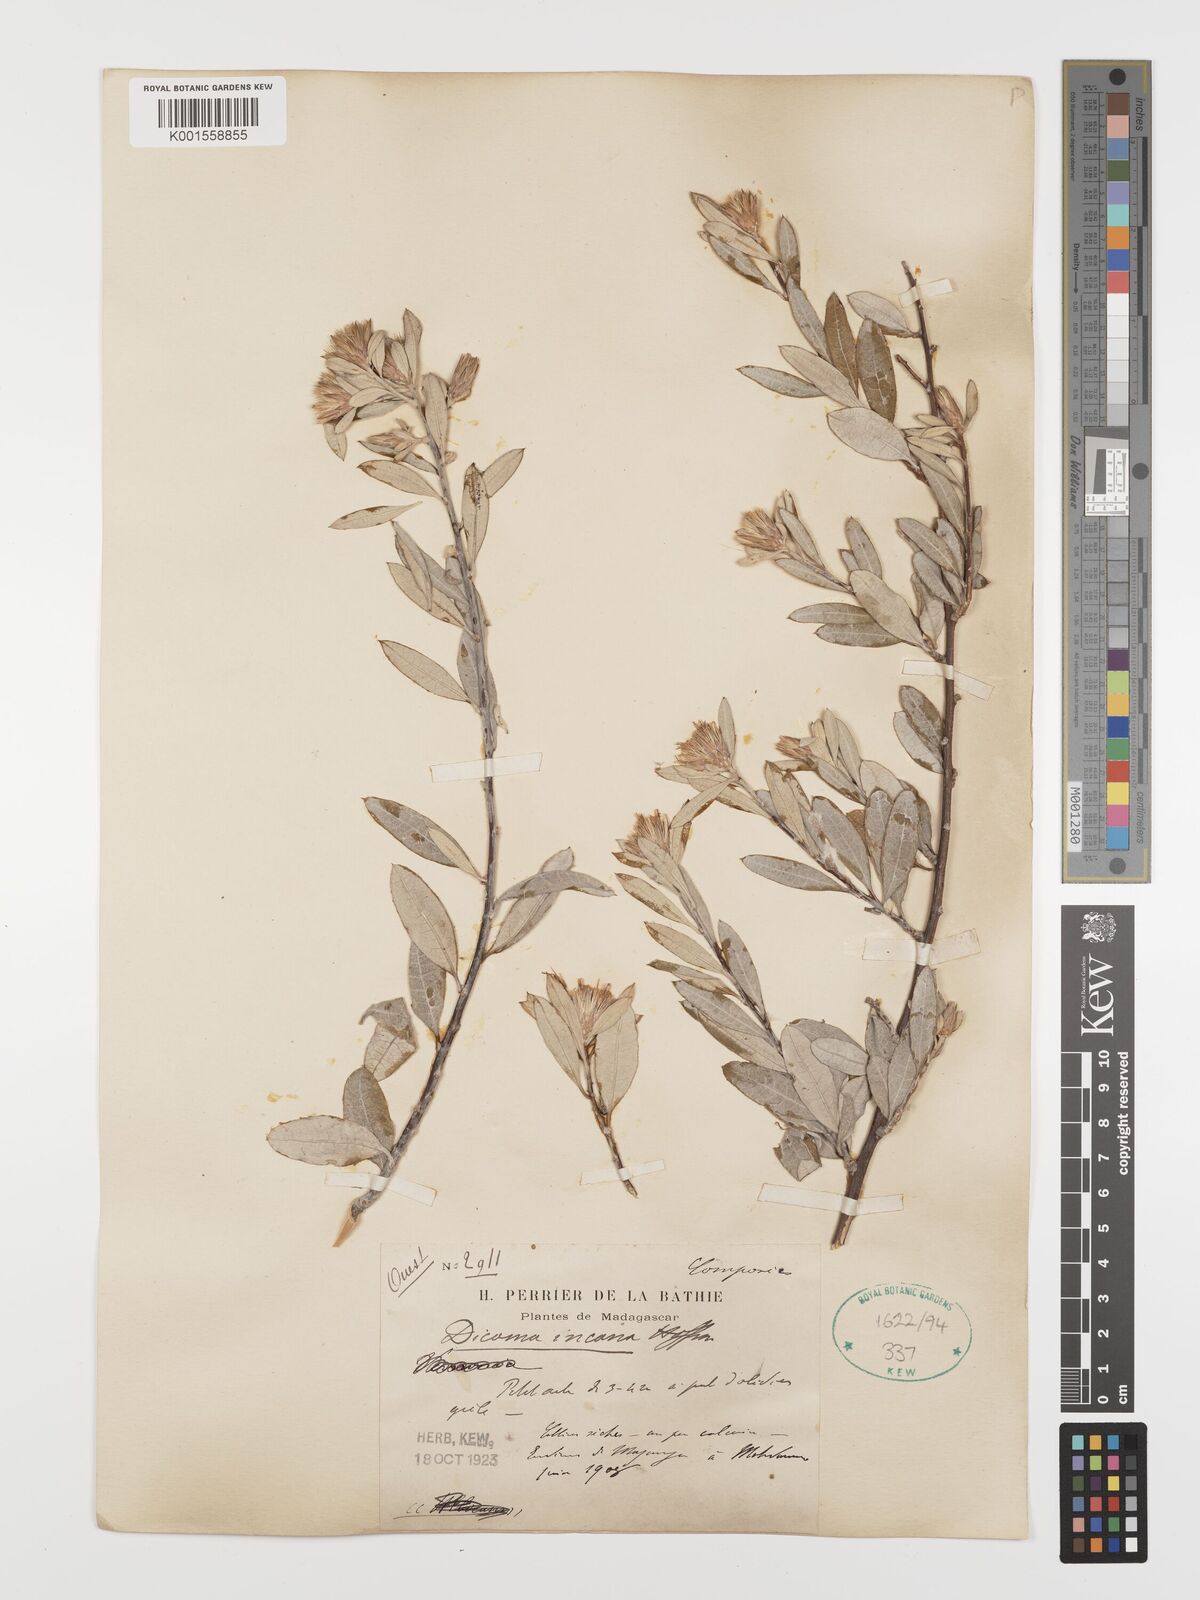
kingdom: Plantae
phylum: Tracheophyta
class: Magnoliopsida
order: Asterales
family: Asteraceae
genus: Dicoma
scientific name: Dicoma incana
